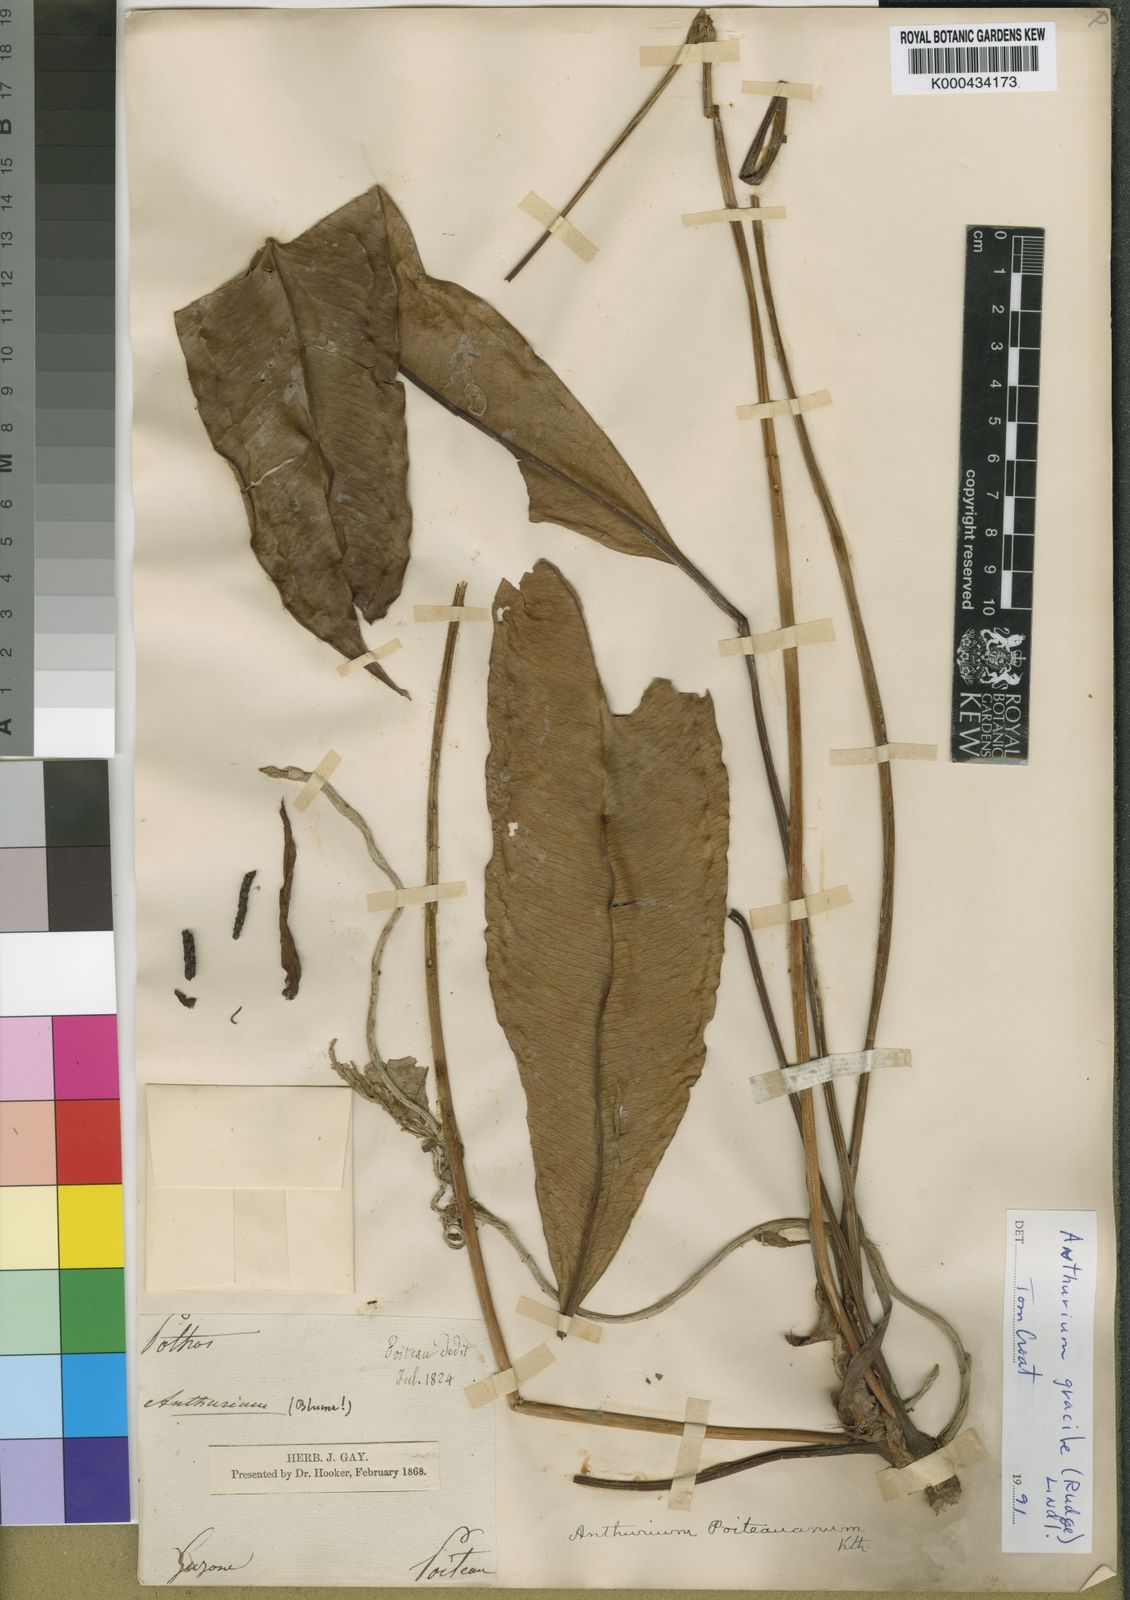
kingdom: Plantae
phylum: Tracheophyta
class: Liliopsida
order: Alismatales
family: Araceae
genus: Anthurium
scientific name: Anthurium gracile
